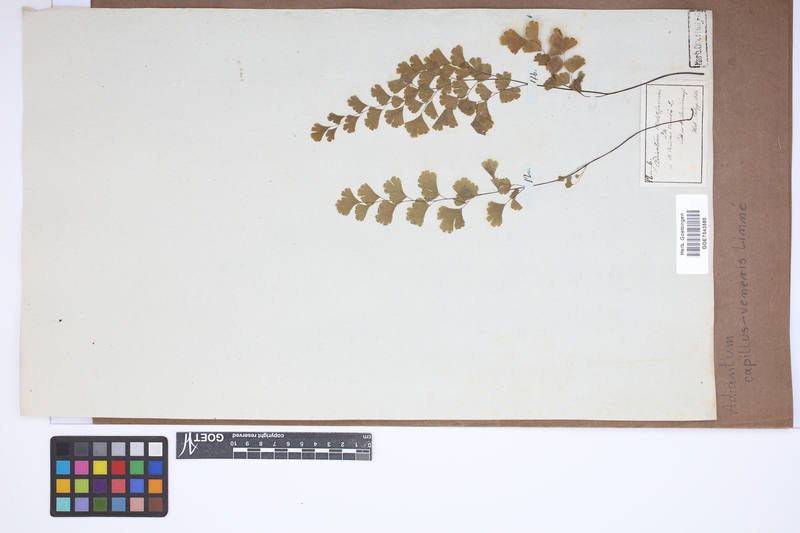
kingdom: Plantae
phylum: Tracheophyta
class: Polypodiopsida
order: Polypodiales
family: Pteridaceae
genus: Adiantum
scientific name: Adiantum capillus-veneris
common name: Maidenhair fern
